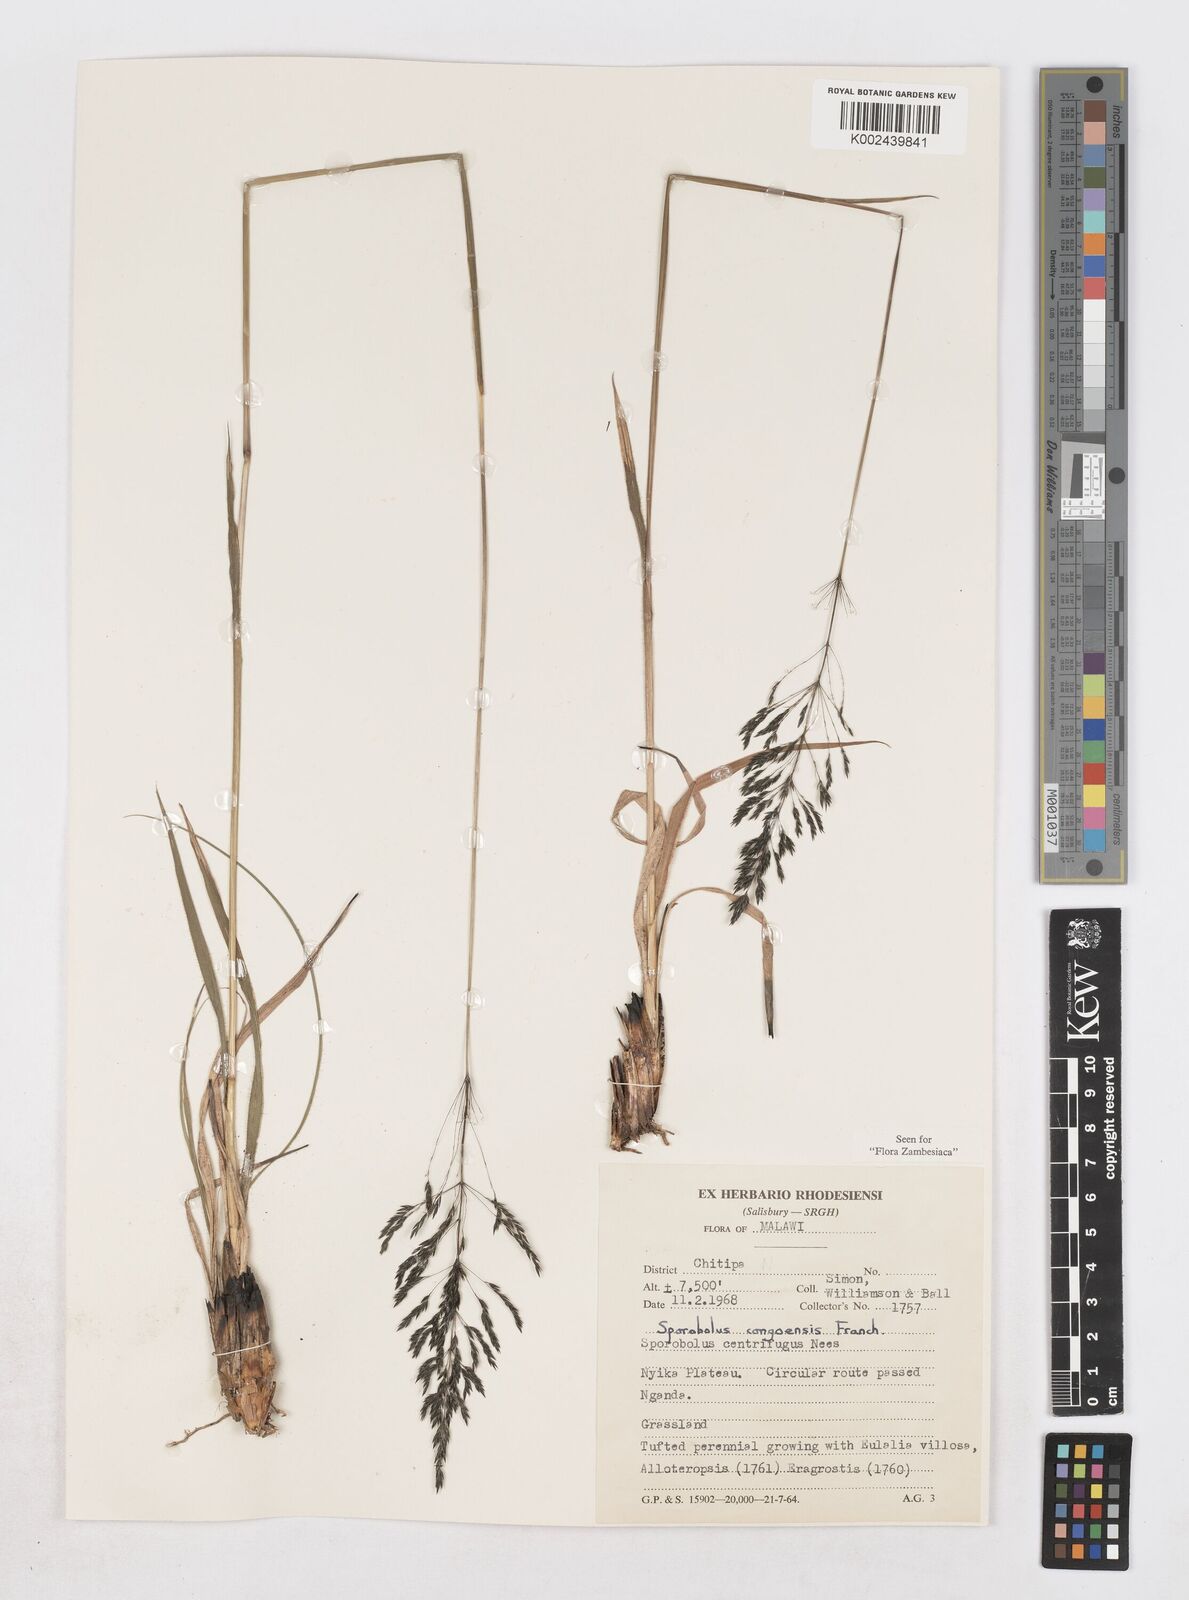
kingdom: Plantae
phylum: Tracheophyta
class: Liliopsida
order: Poales
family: Poaceae
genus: Sporobolus
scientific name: Sporobolus congoensis
